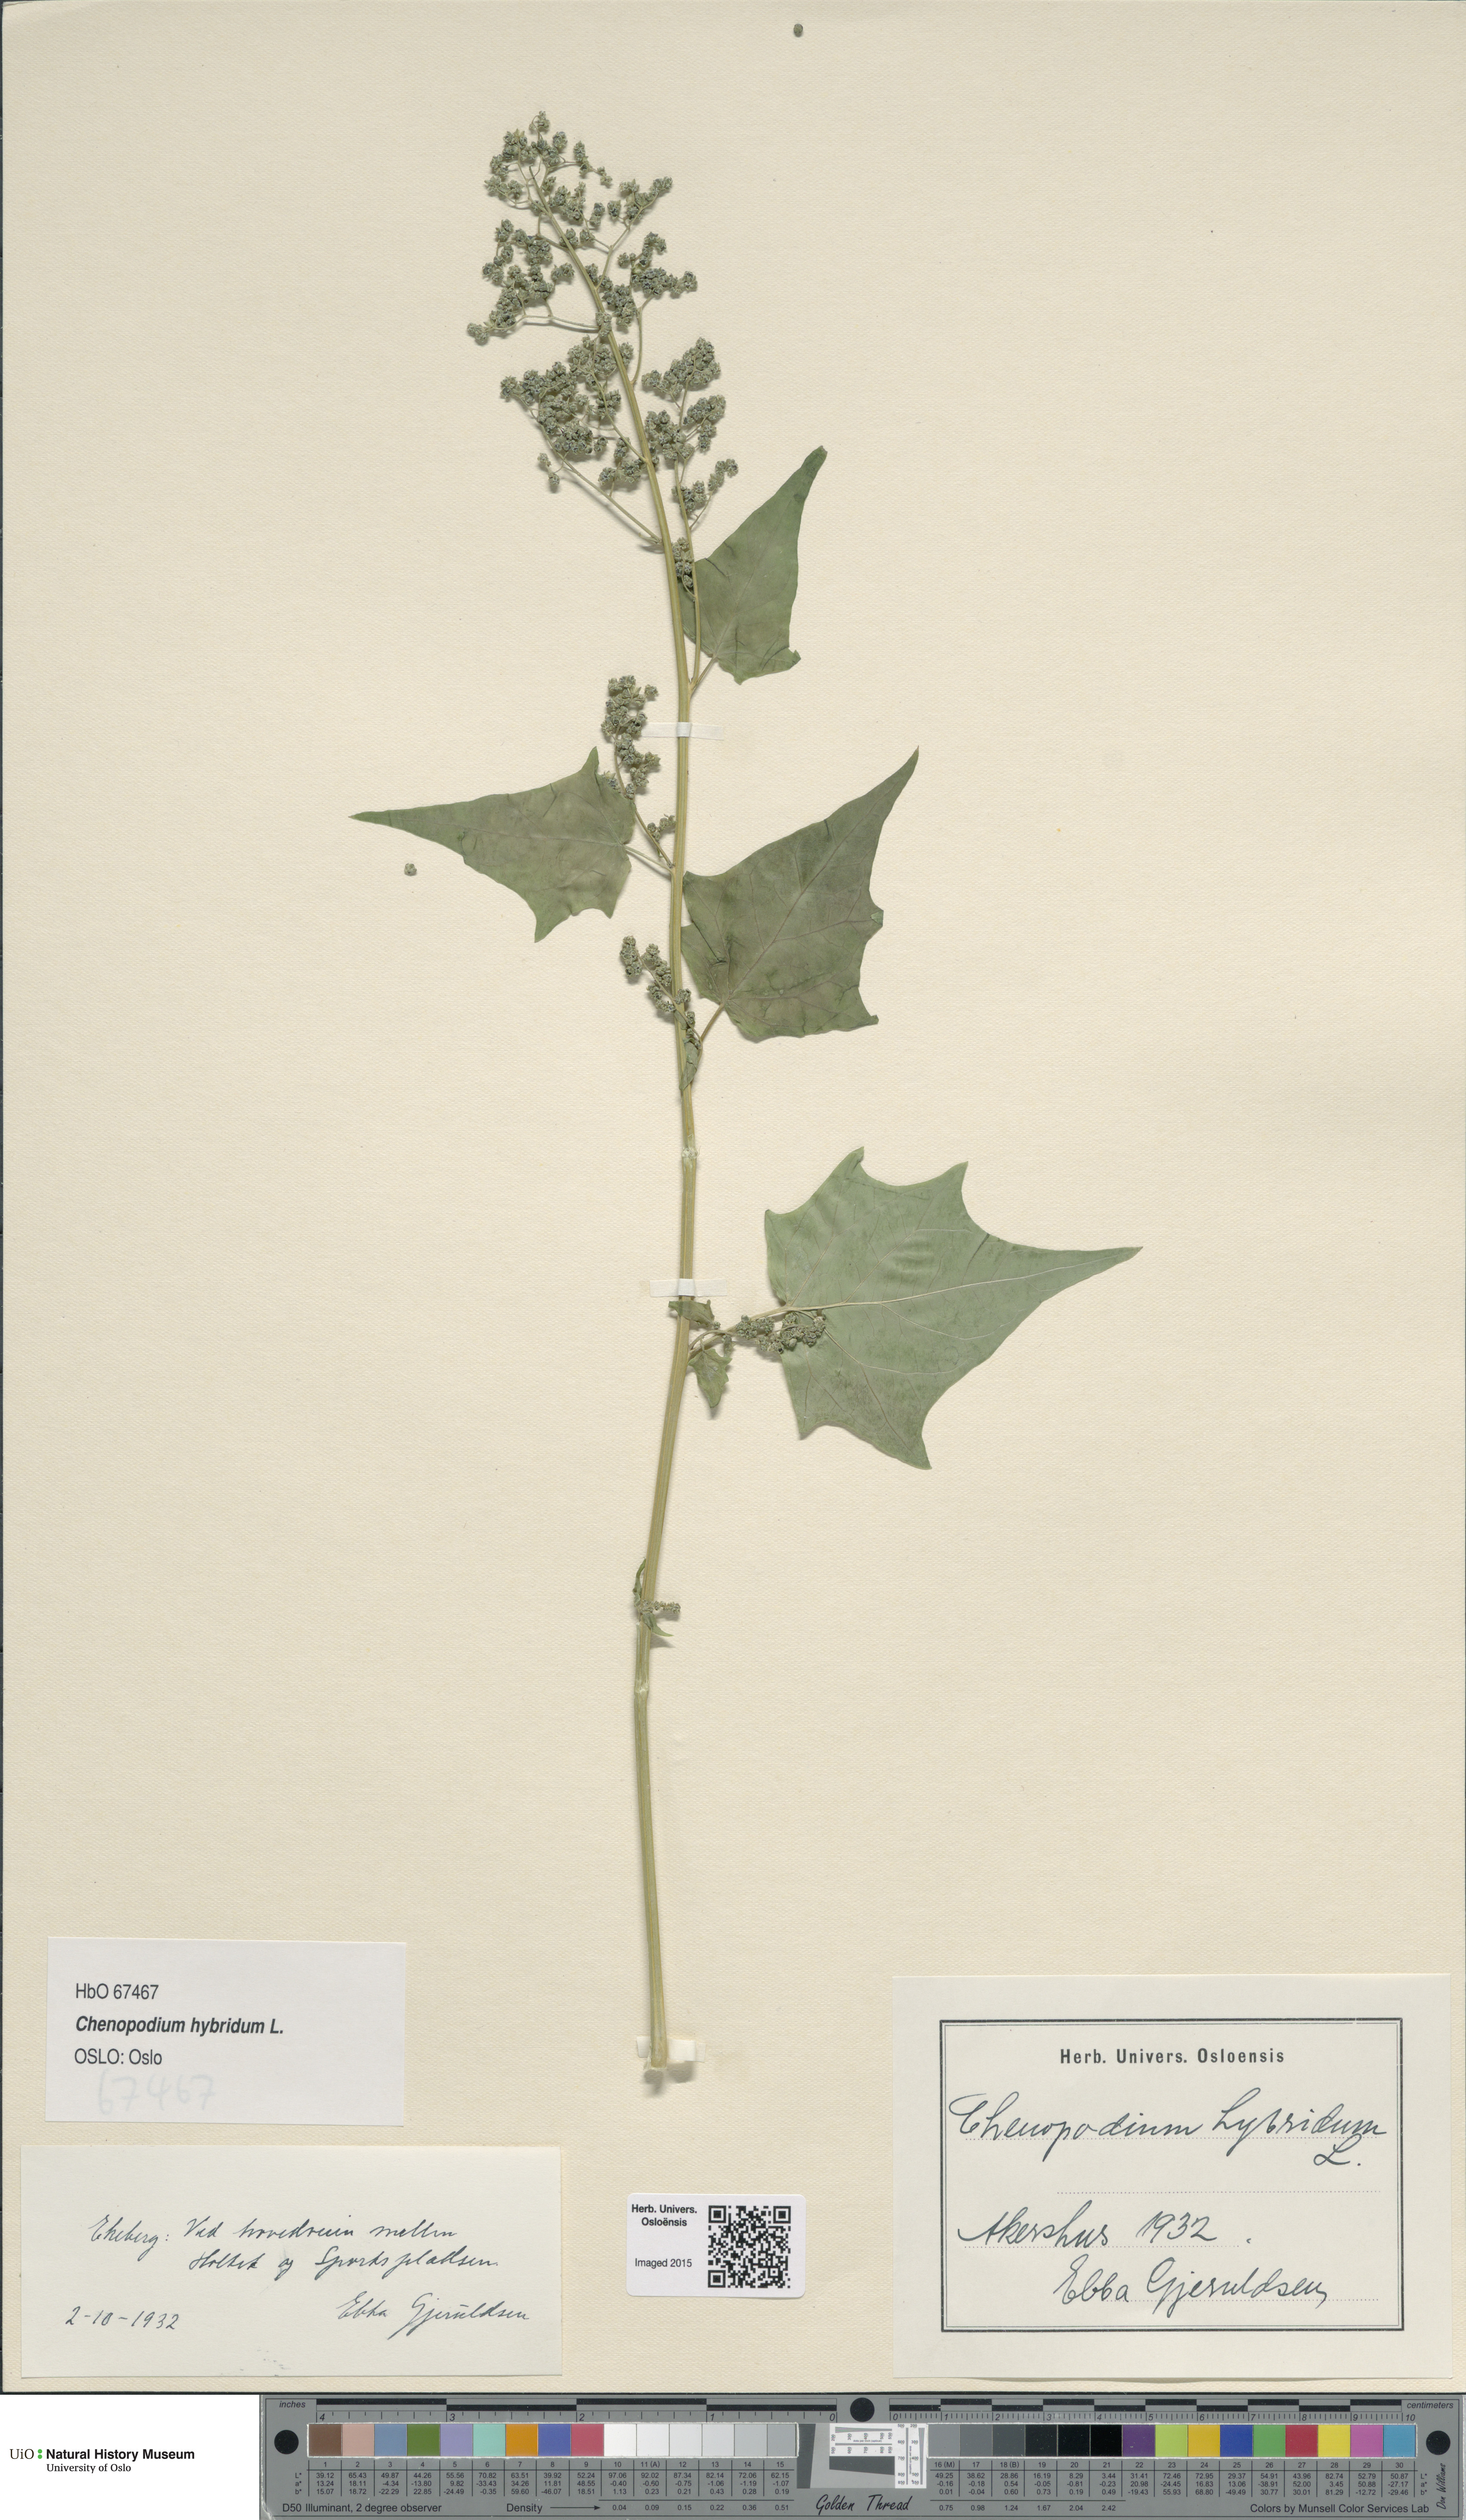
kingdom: Plantae
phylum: Tracheophyta
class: Magnoliopsida
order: Caryophyllales
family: Amaranthaceae
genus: Chenopodiastrum
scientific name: Chenopodiastrum hybridum
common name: Mapleleaf goosefoot
